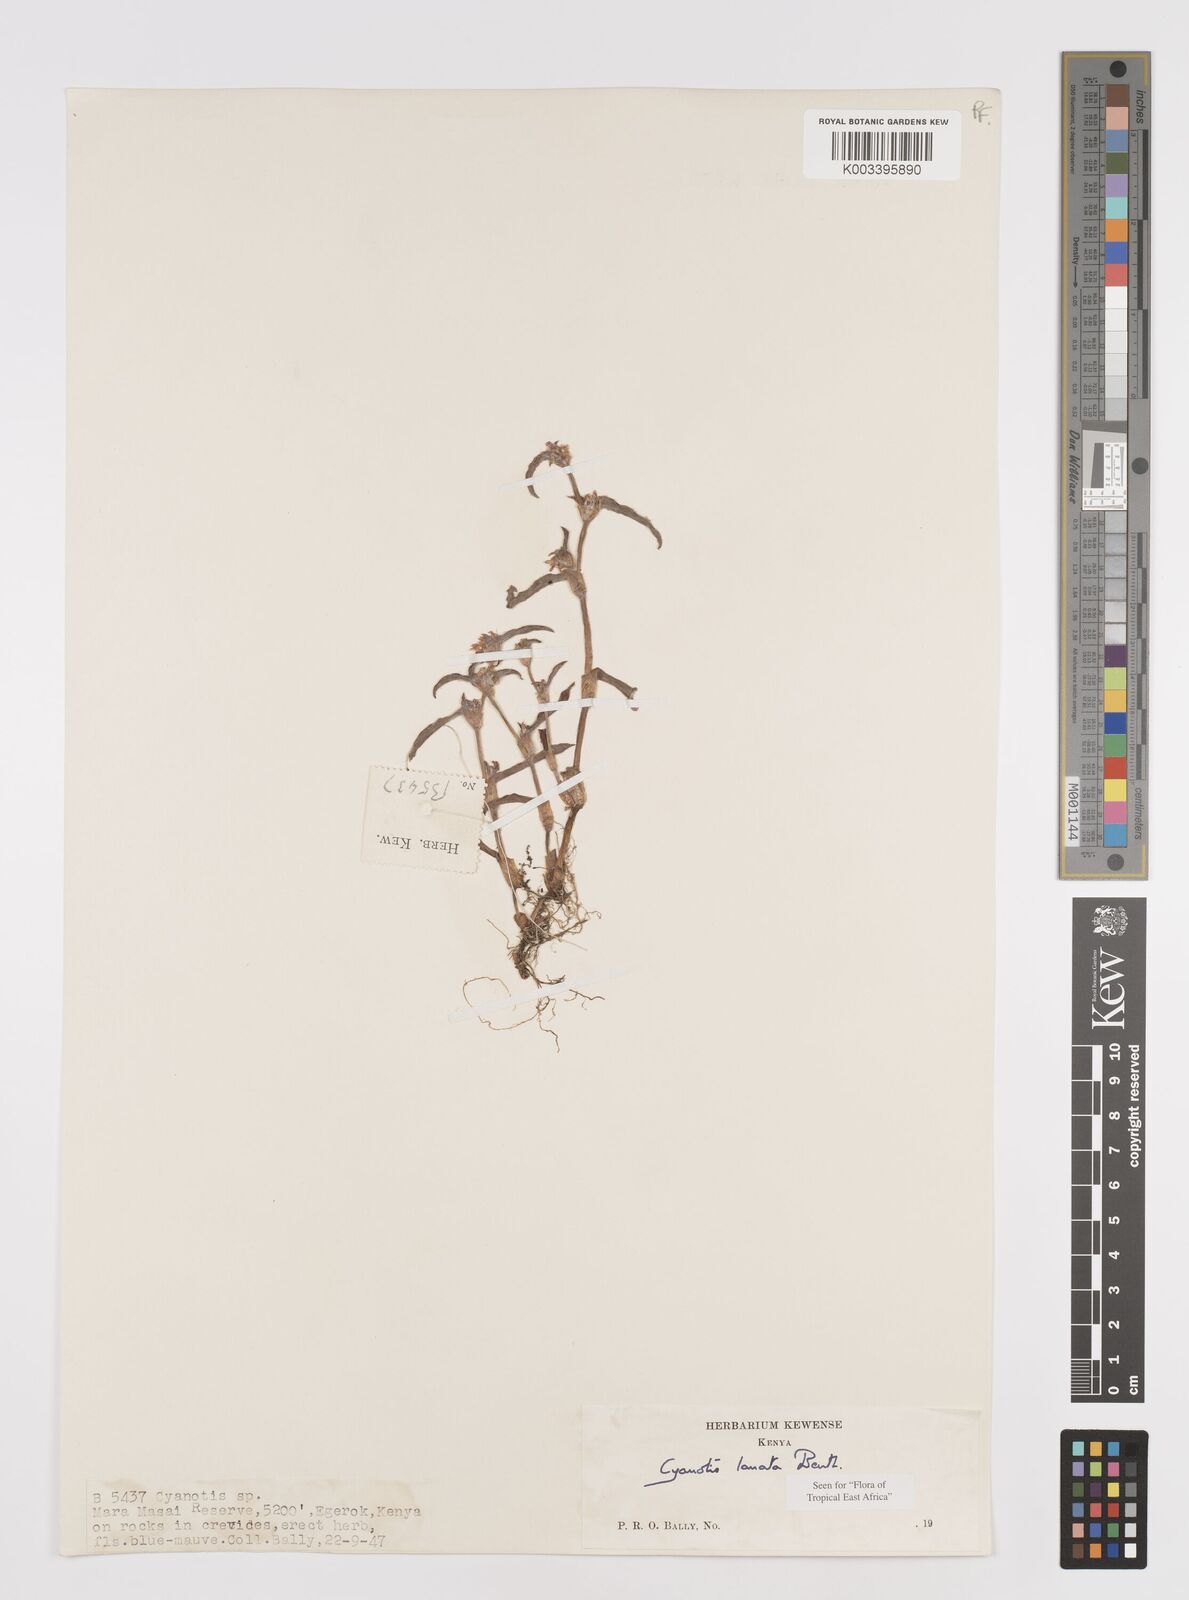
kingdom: Plantae
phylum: Tracheophyta
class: Liliopsida
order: Commelinales
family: Commelinaceae
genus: Cyanotis
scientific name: Cyanotis lanata
